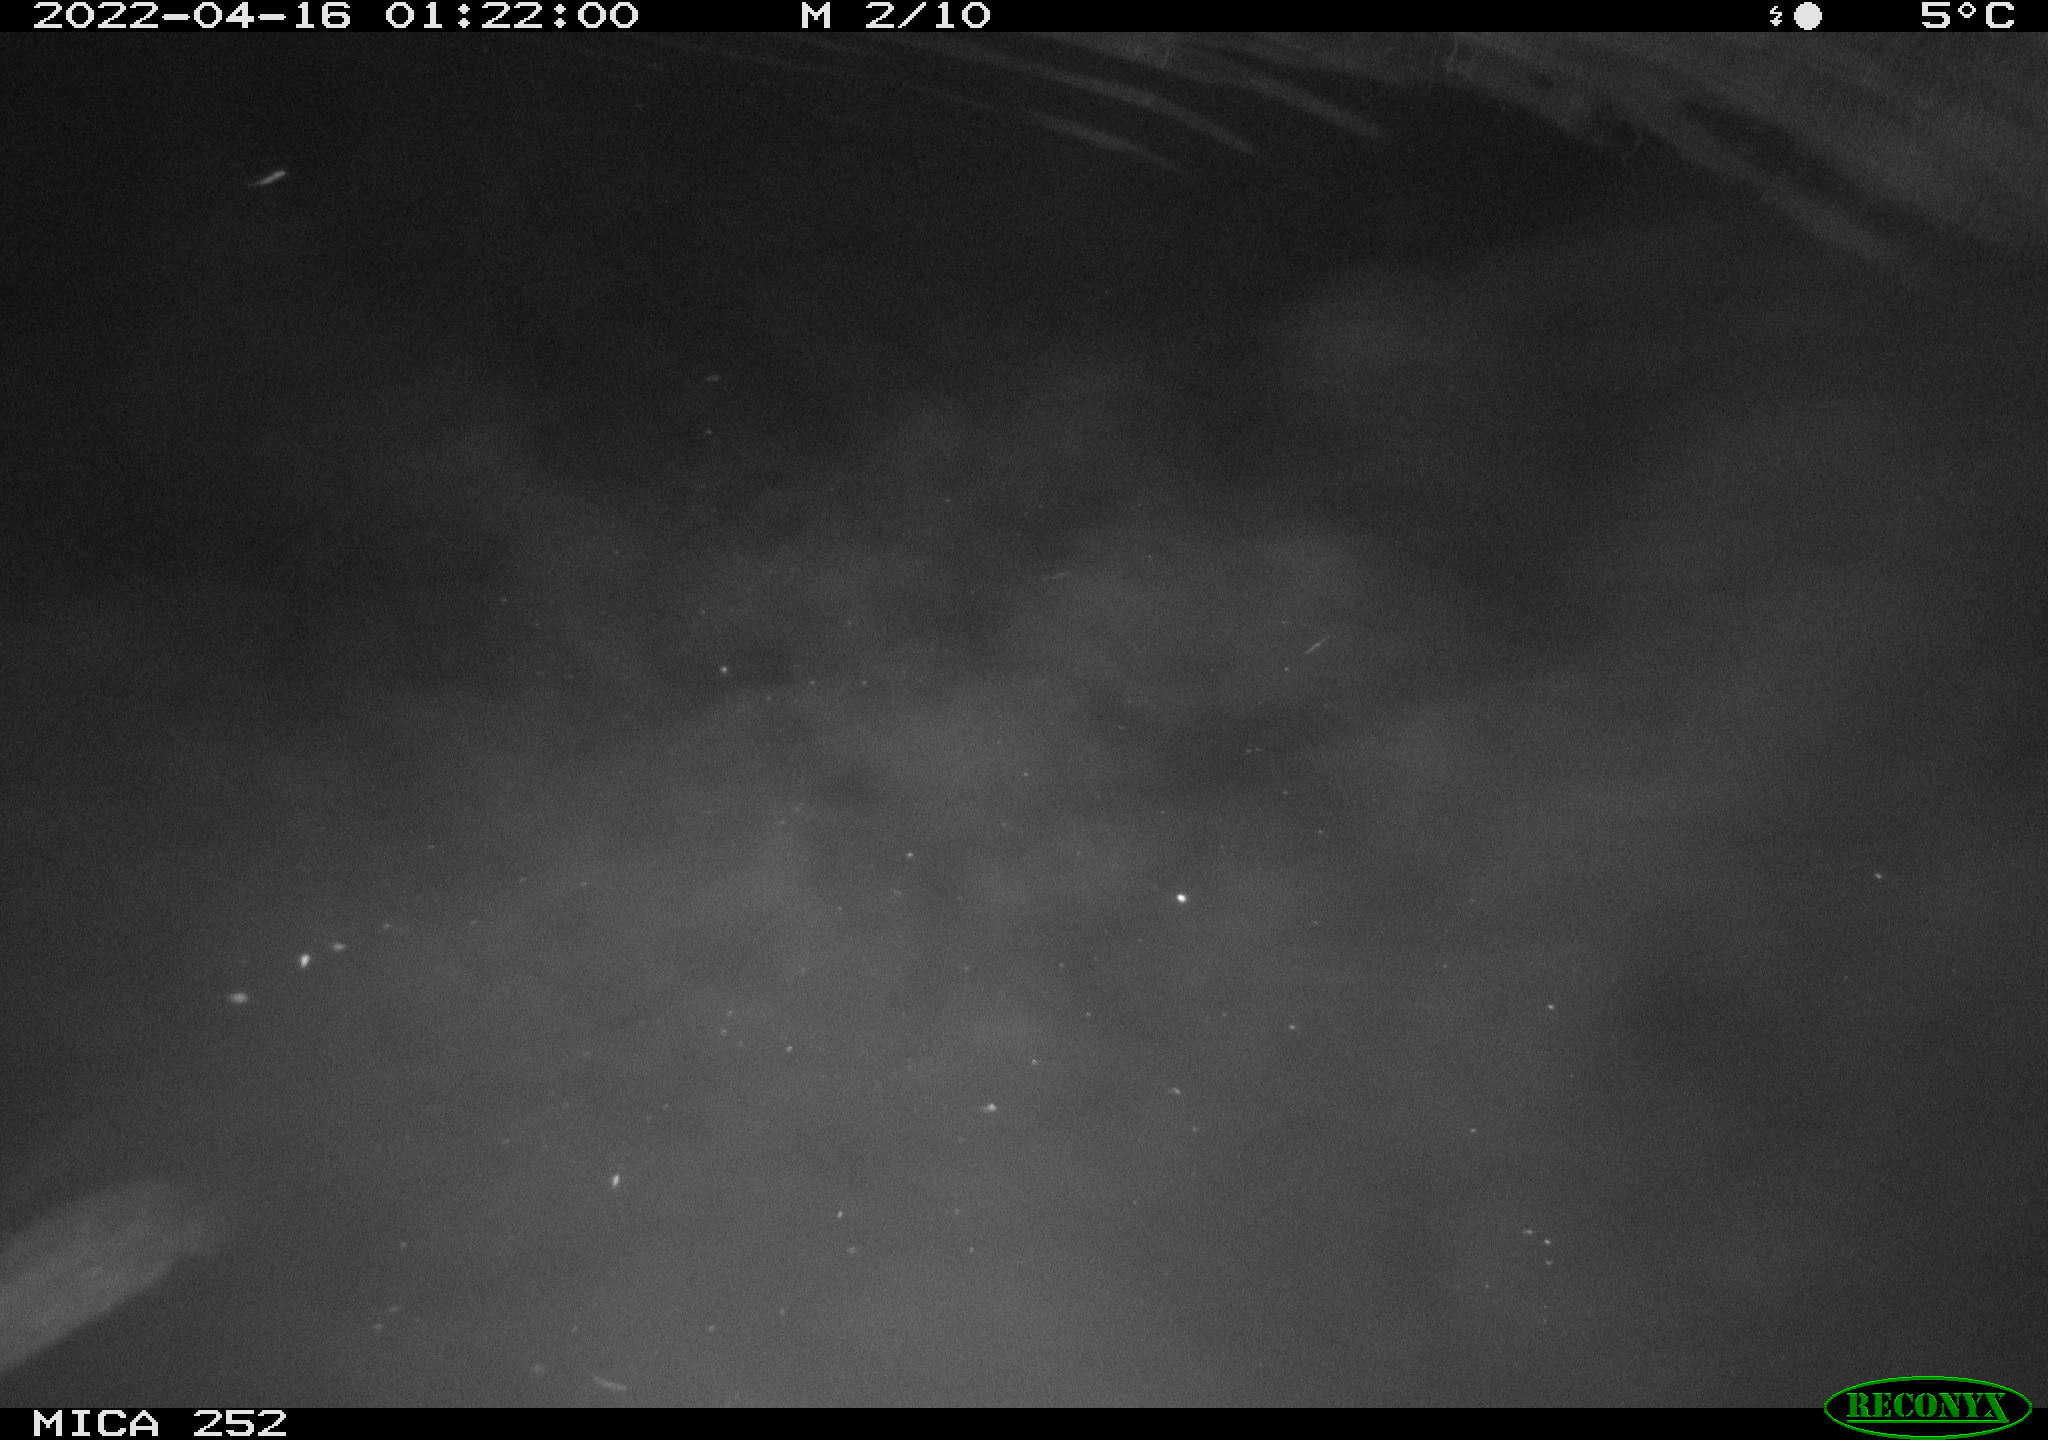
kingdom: Animalia
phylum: Chordata
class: Mammalia
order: Rodentia
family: Castoridae
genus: Castor
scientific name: Castor fiber
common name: Eurasian beaver
